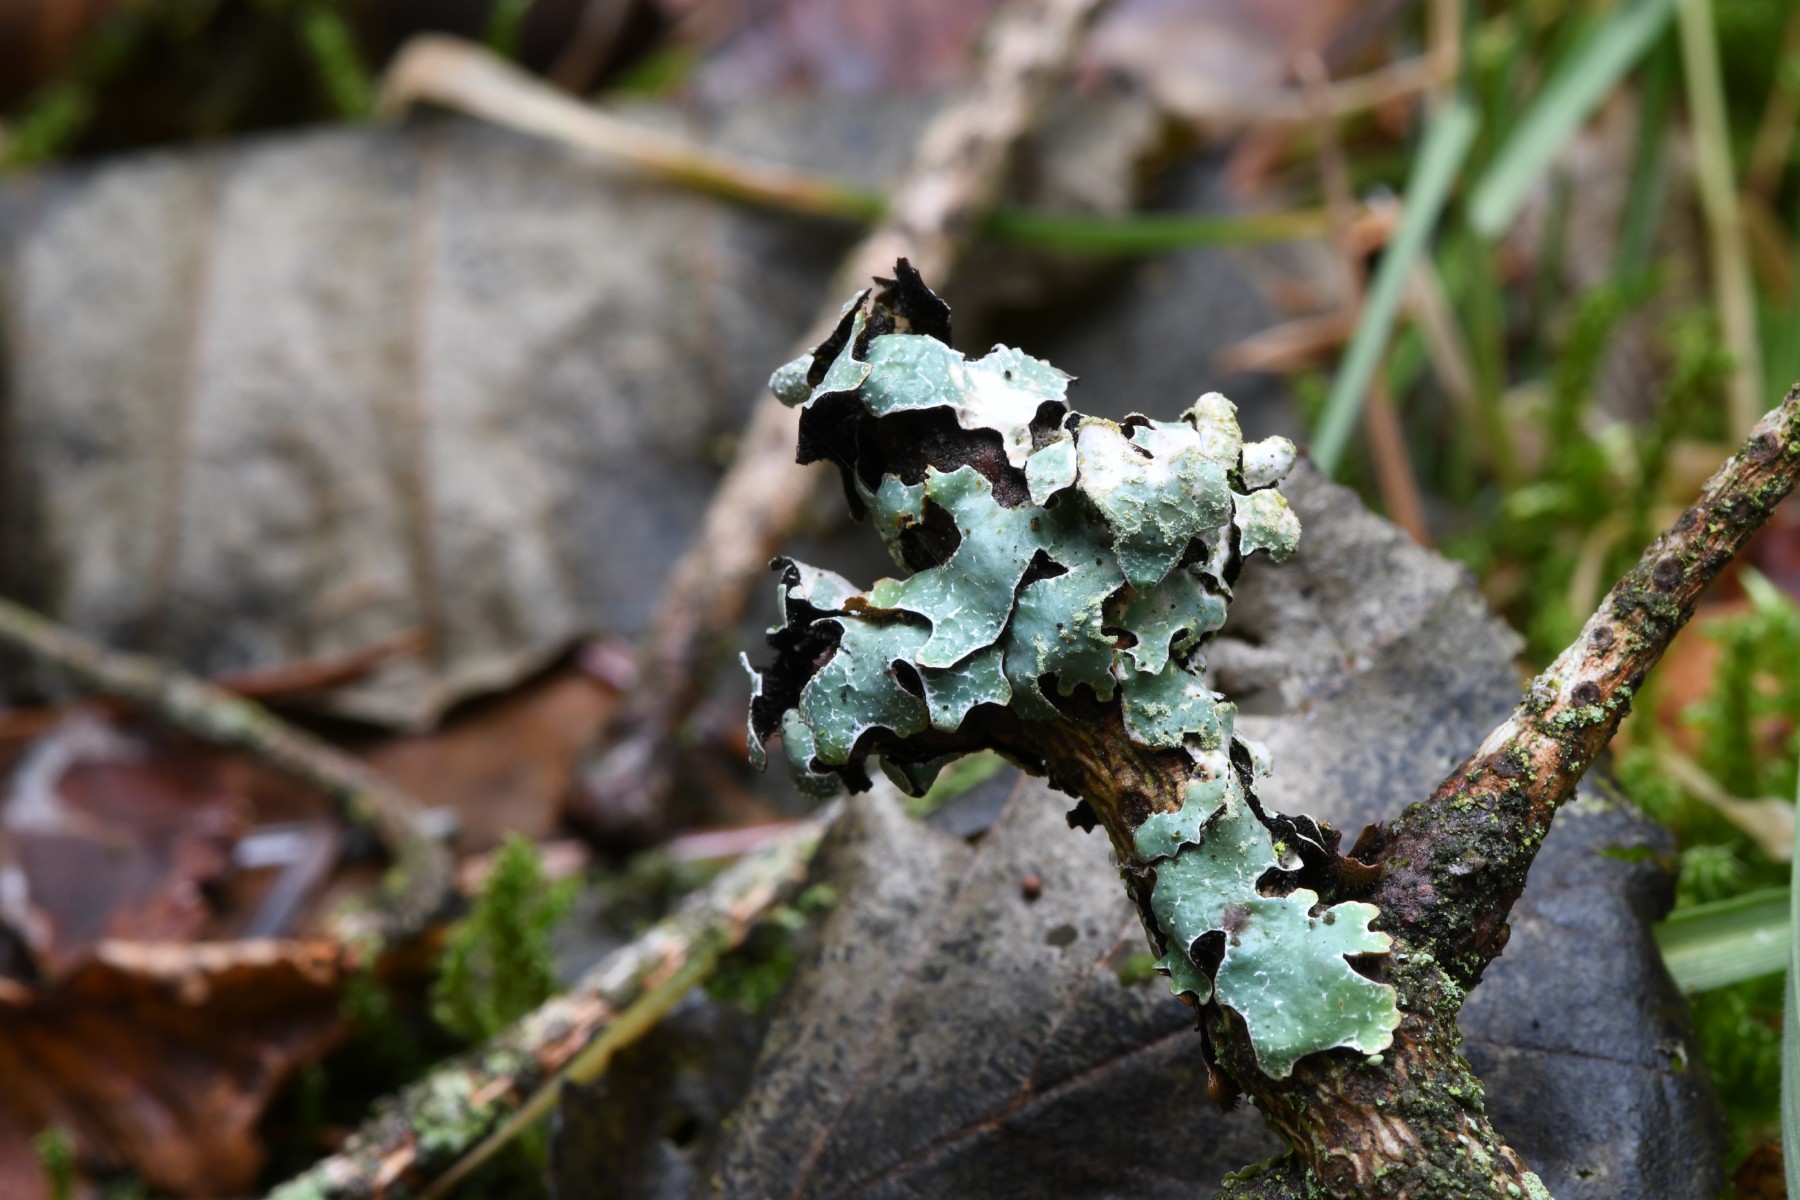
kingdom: Fungi
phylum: Ascomycota
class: Lecanoromycetes
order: Lecanorales
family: Parmeliaceae
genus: Parmelia
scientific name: Parmelia sulcata
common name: rynket skållav
